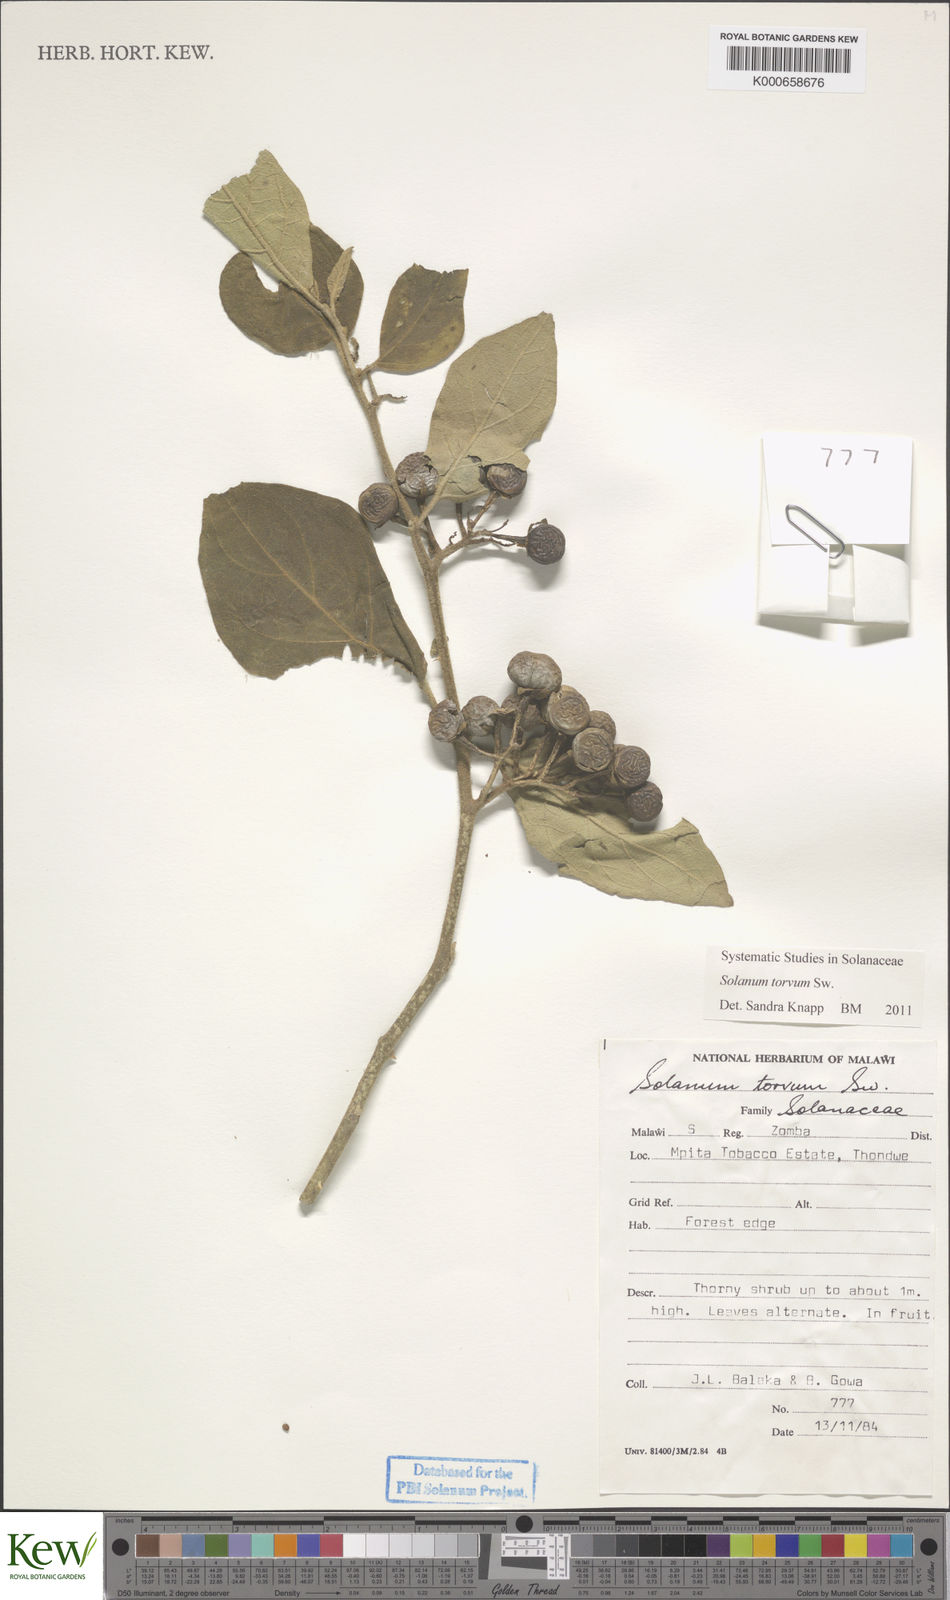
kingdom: Plantae
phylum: Tracheophyta
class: Magnoliopsida
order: Solanales
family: Solanaceae
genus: Solanum
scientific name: Solanum torvum
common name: Turkey berry
